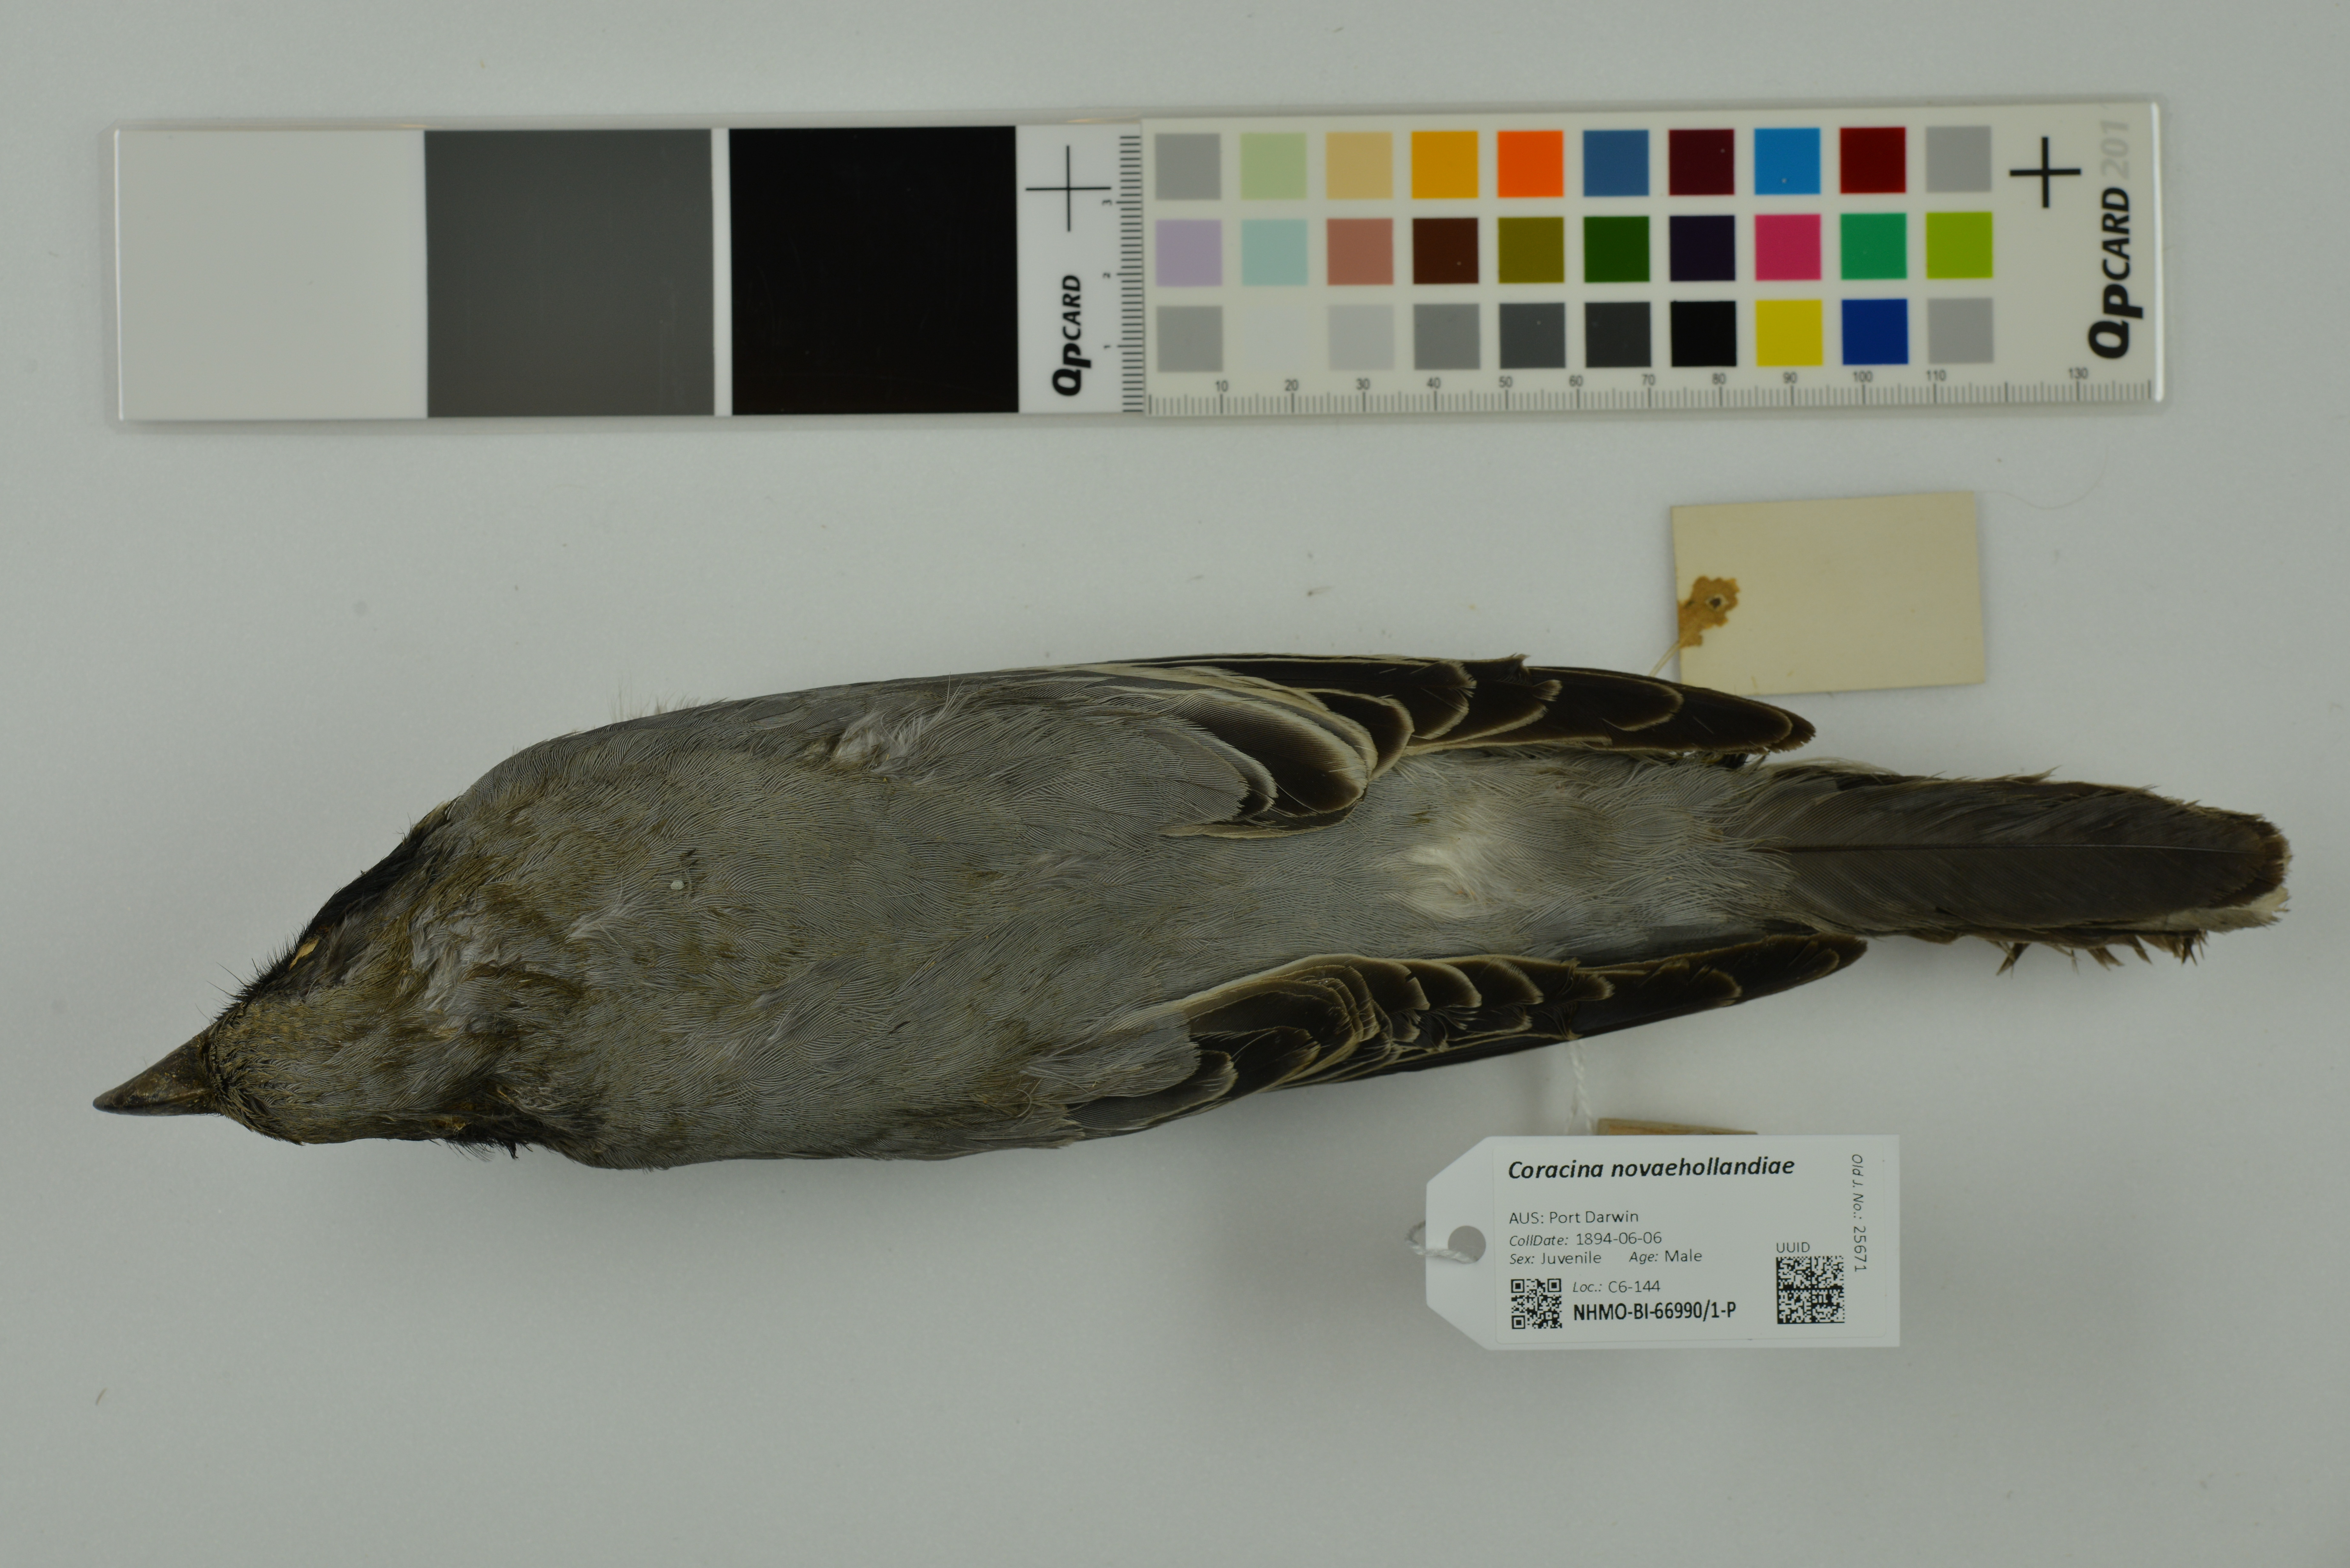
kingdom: Animalia
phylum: Chordata
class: Aves
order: Passeriformes
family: Campephagidae
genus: Coracina
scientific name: Coracina novaehollandiae
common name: Black-faced cuckooshrike
